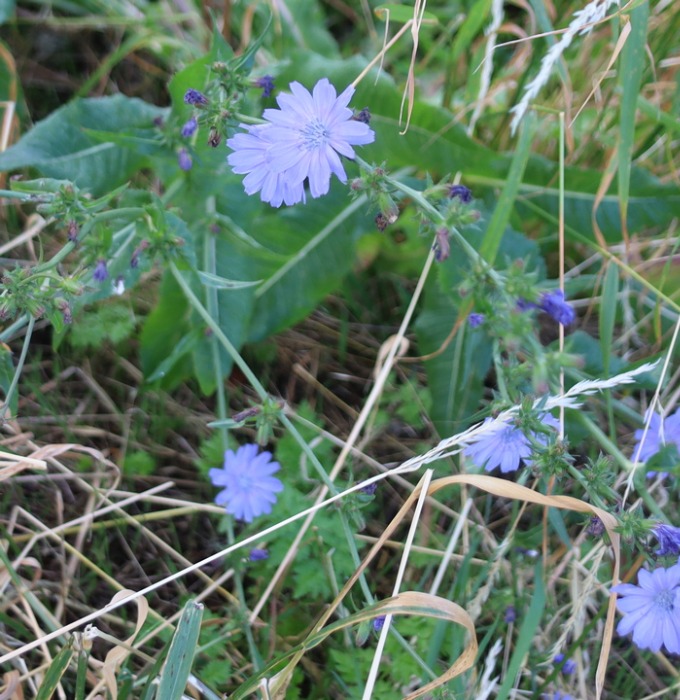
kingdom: Plantae
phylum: Tracheophyta
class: Magnoliopsida
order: Asterales
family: Asteraceae
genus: Cichorium
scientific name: Cichorium intybus
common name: Cikorie
